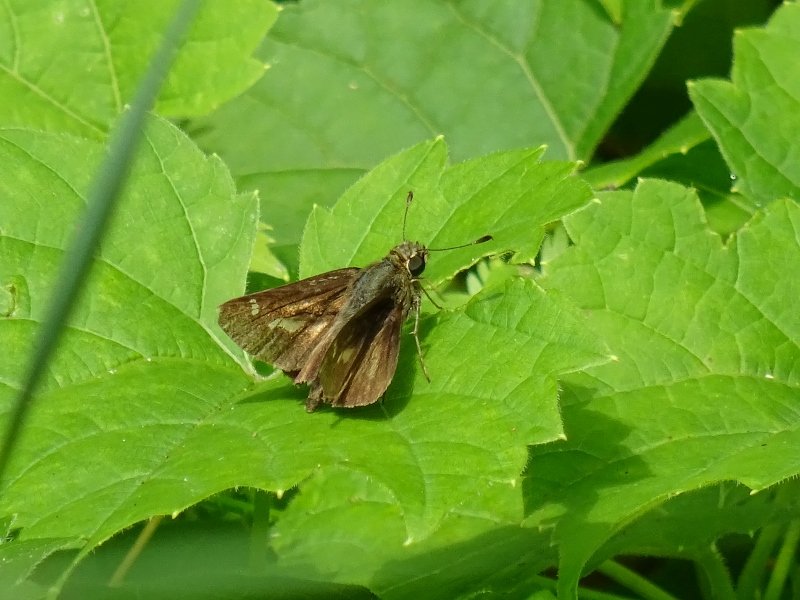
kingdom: Animalia
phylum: Arthropoda
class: Insecta
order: Lepidoptera
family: Hesperiidae
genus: Vernia
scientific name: Vernia verna
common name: Little Glassywing
